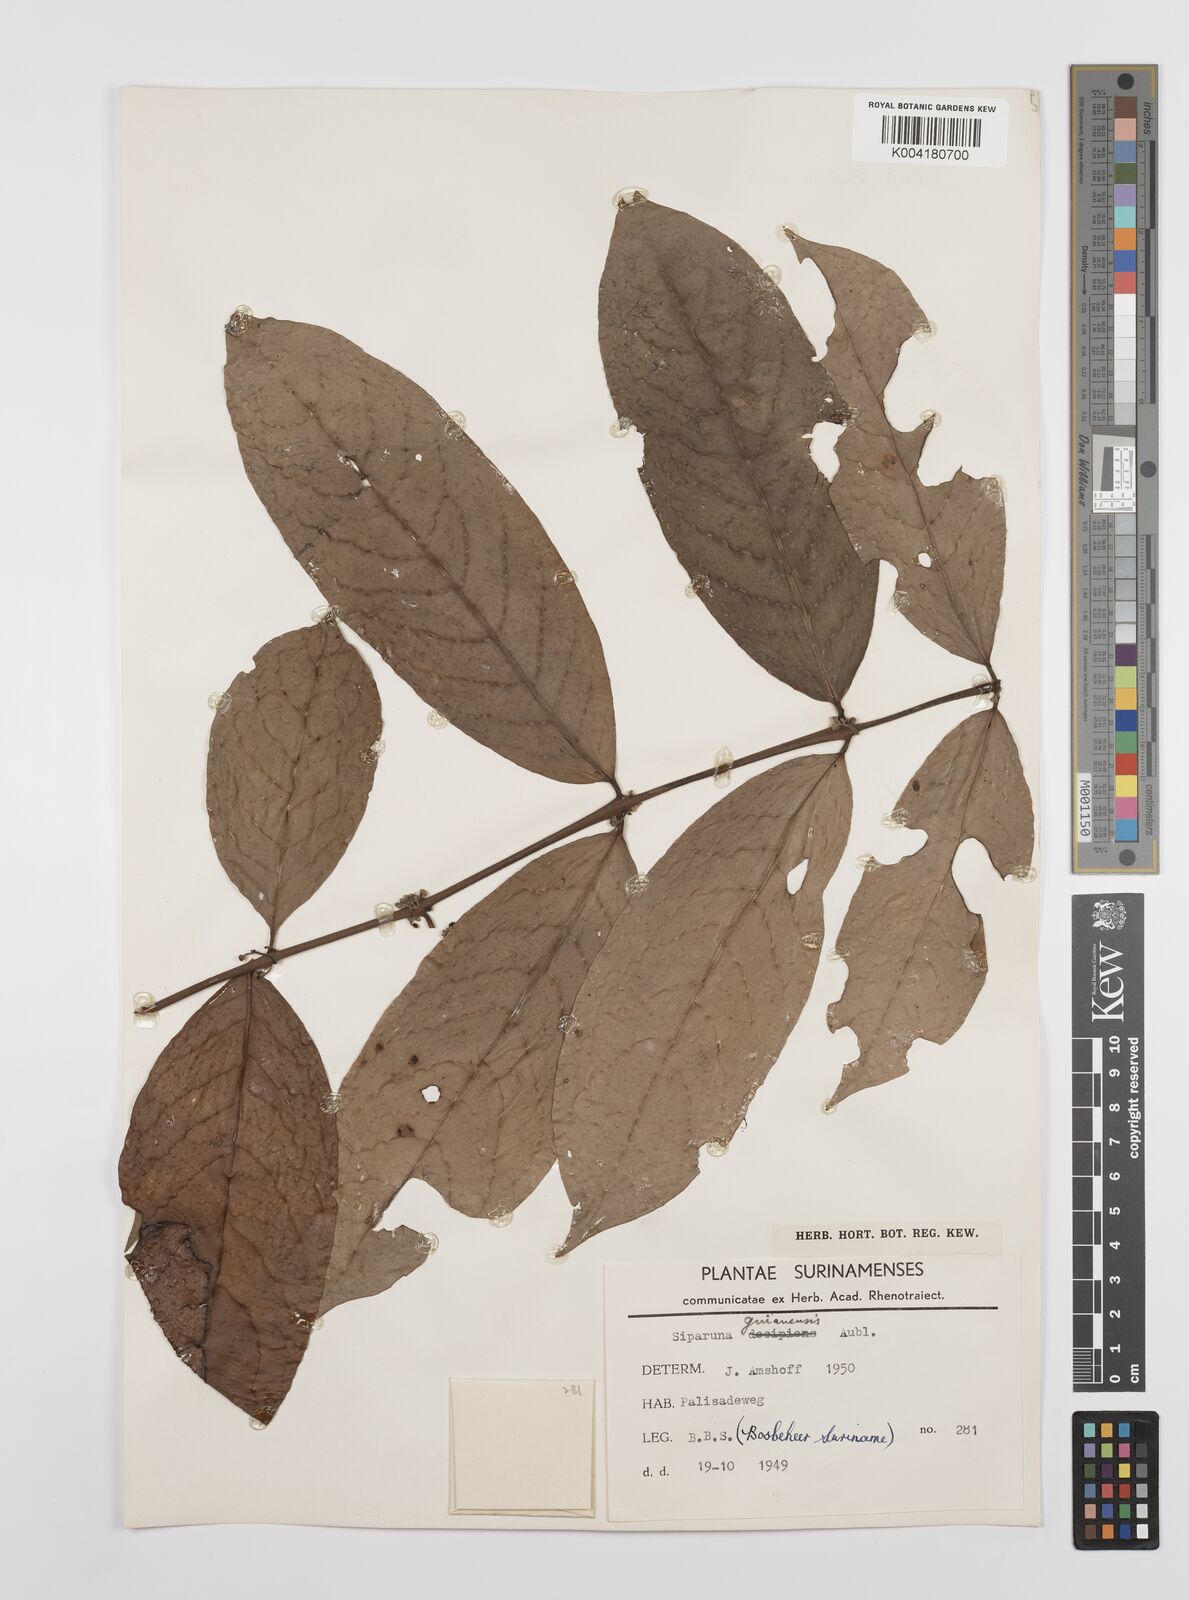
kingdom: Plantae
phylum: Tracheophyta
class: Magnoliopsida
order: Laurales
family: Siparunaceae
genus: Siparuna
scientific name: Siparuna guianensis
